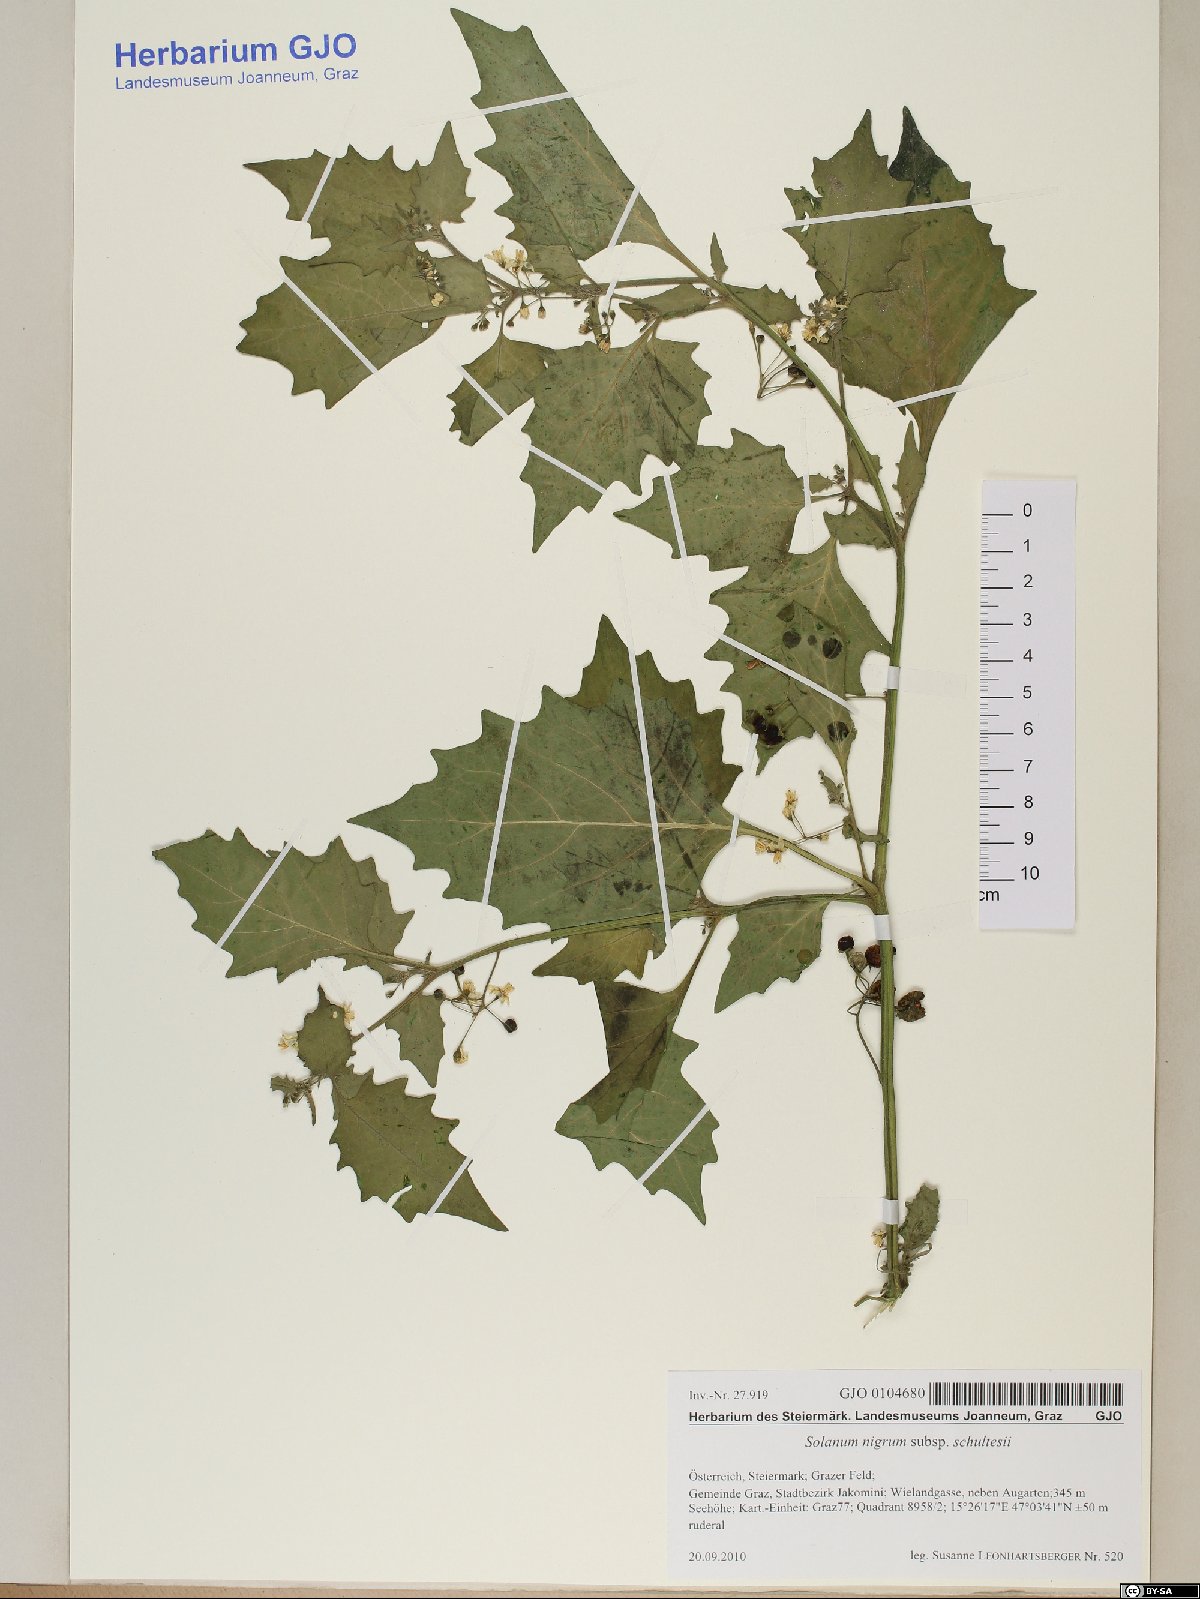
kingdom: Plantae
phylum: Tracheophyta
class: Magnoliopsida
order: Solanales
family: Solanaceae
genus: Solanum
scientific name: Solanum decipiens
